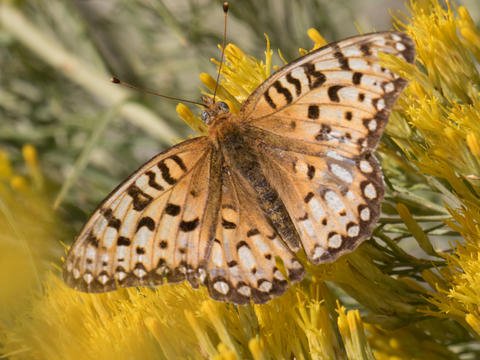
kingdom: Animalia
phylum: Arthropoda
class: Insecta
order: Lepidoptera
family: Nymphalidae
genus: Speyeria
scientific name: Speyeria aphrodite
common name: Aphrodite Fritillary
